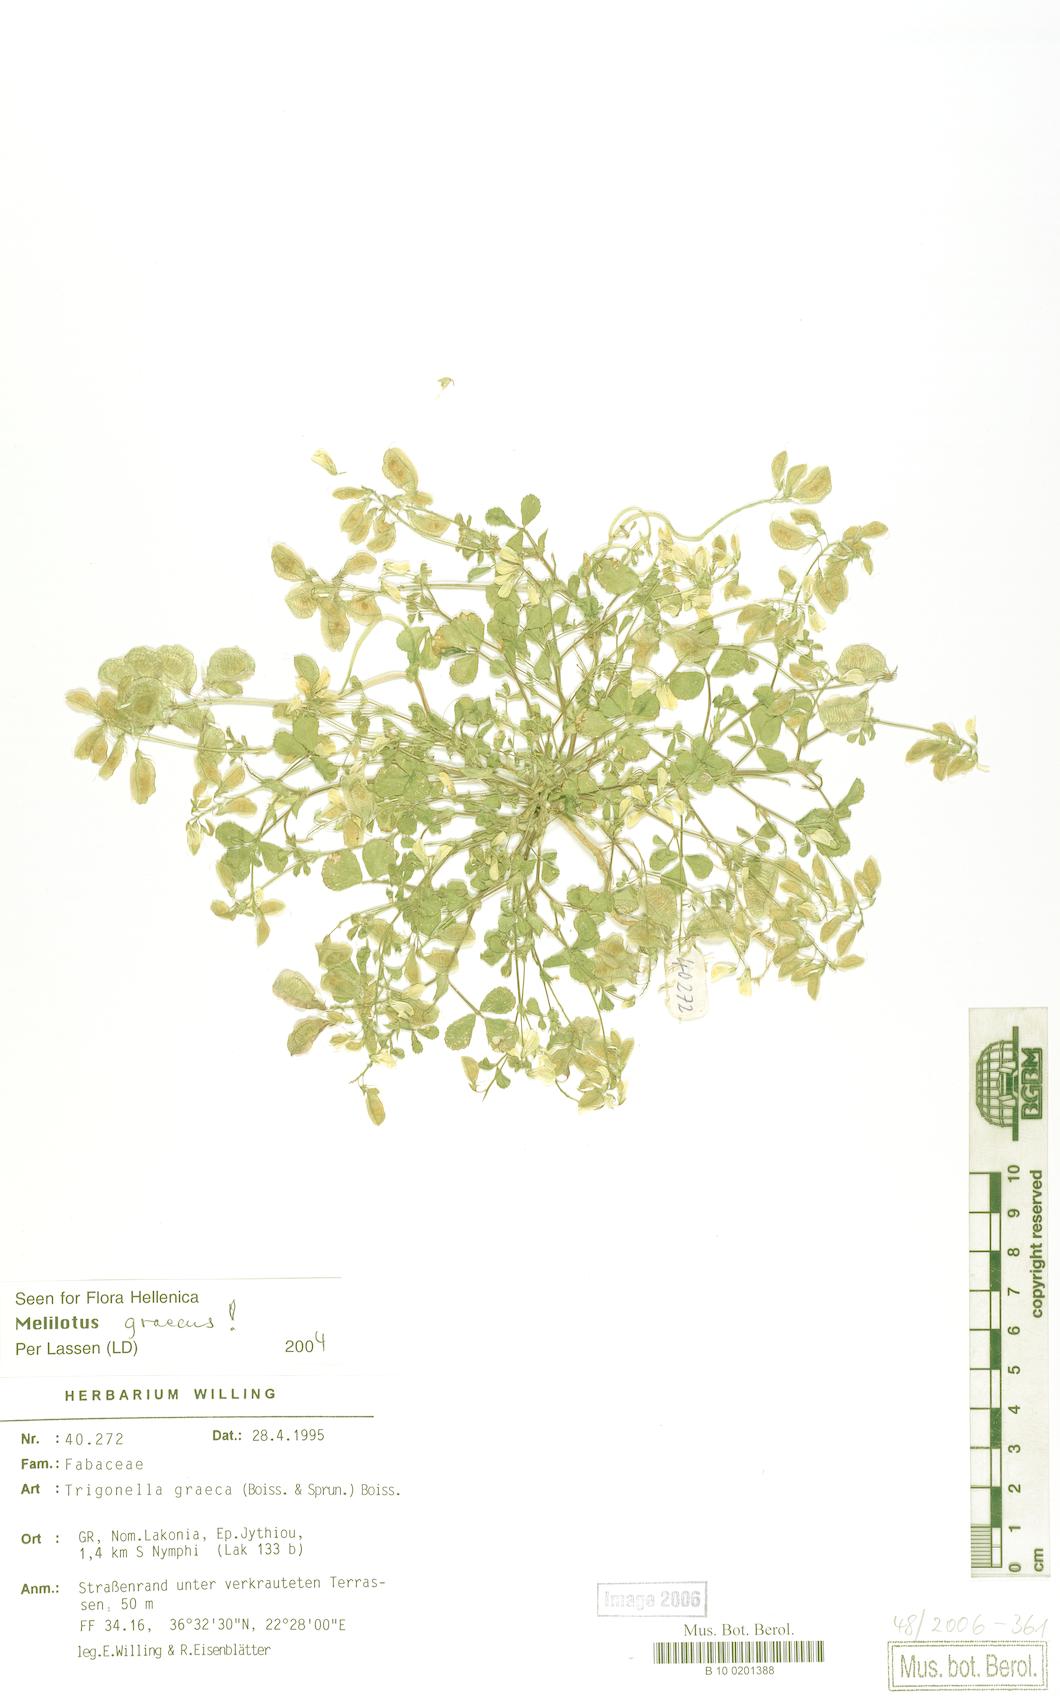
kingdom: Plantae
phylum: Tracheophyta
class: Magnoliopsida
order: Fabales
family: Fabaceae
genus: Trigonella
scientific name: Trigonella graeca
